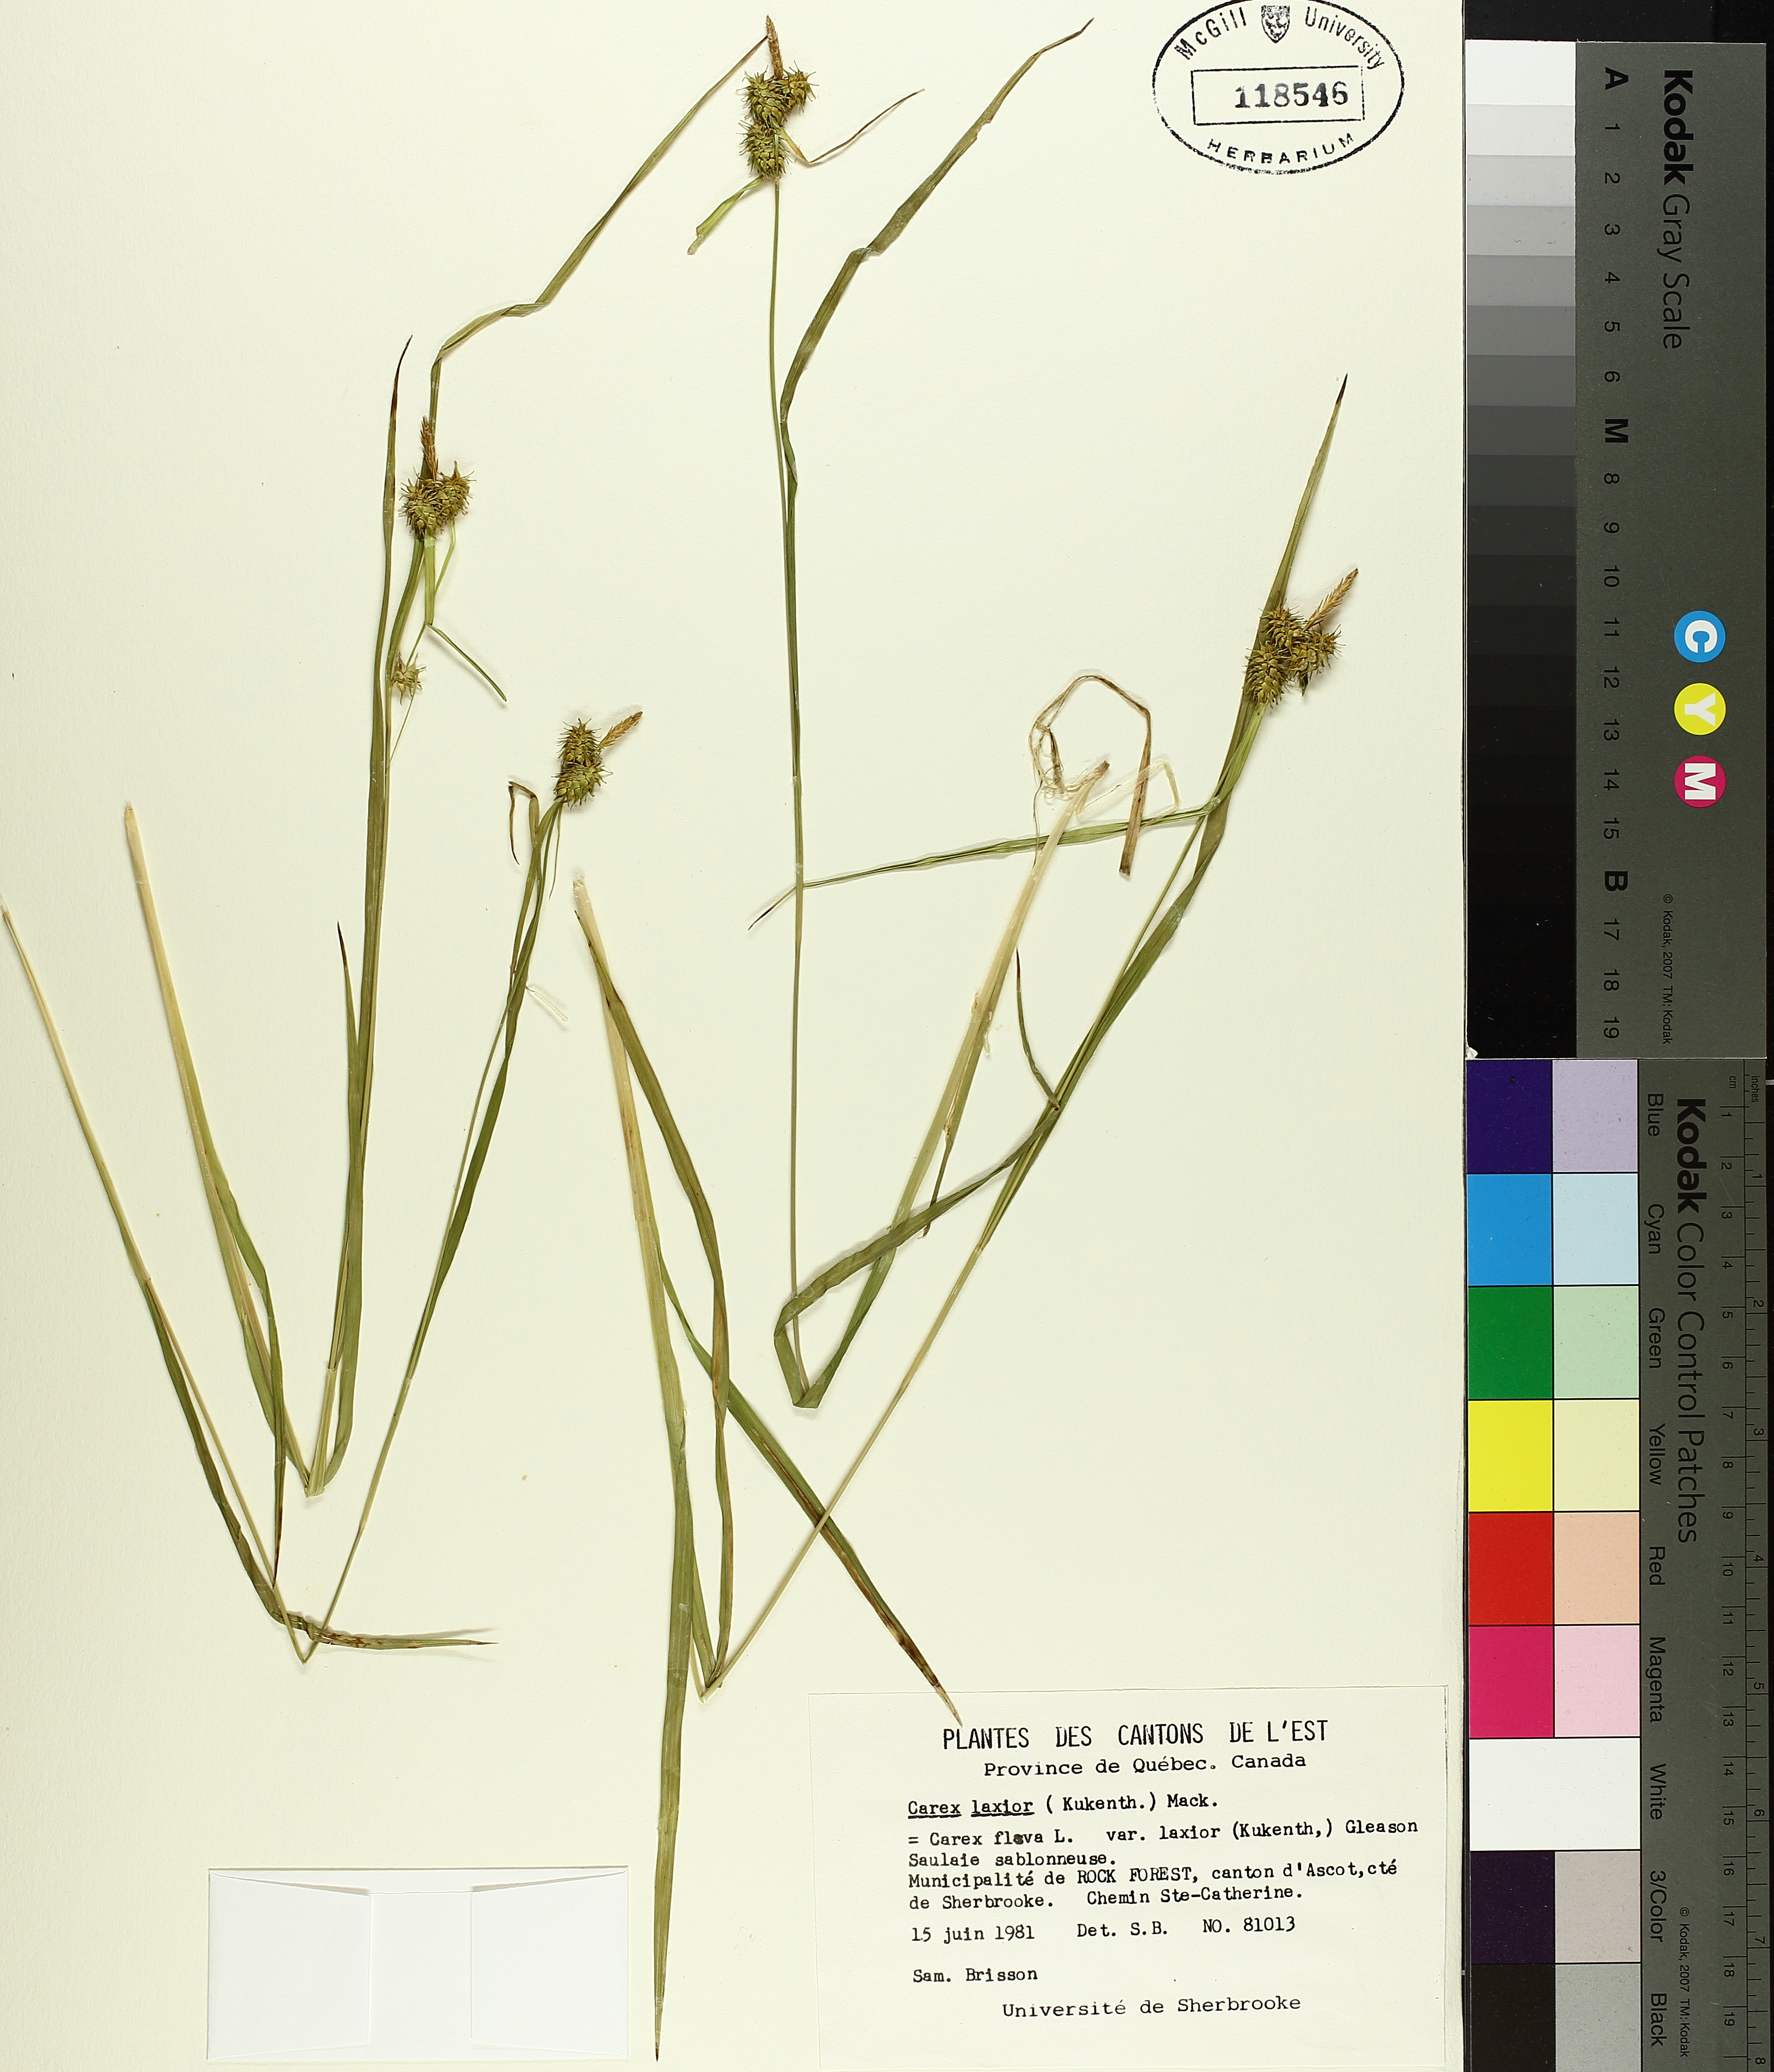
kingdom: Plantae
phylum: Tracheophyta
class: Liliopsida
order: Poales
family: Cyperaceae
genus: Carex
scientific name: Carex flava
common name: Large yellow-sedge
